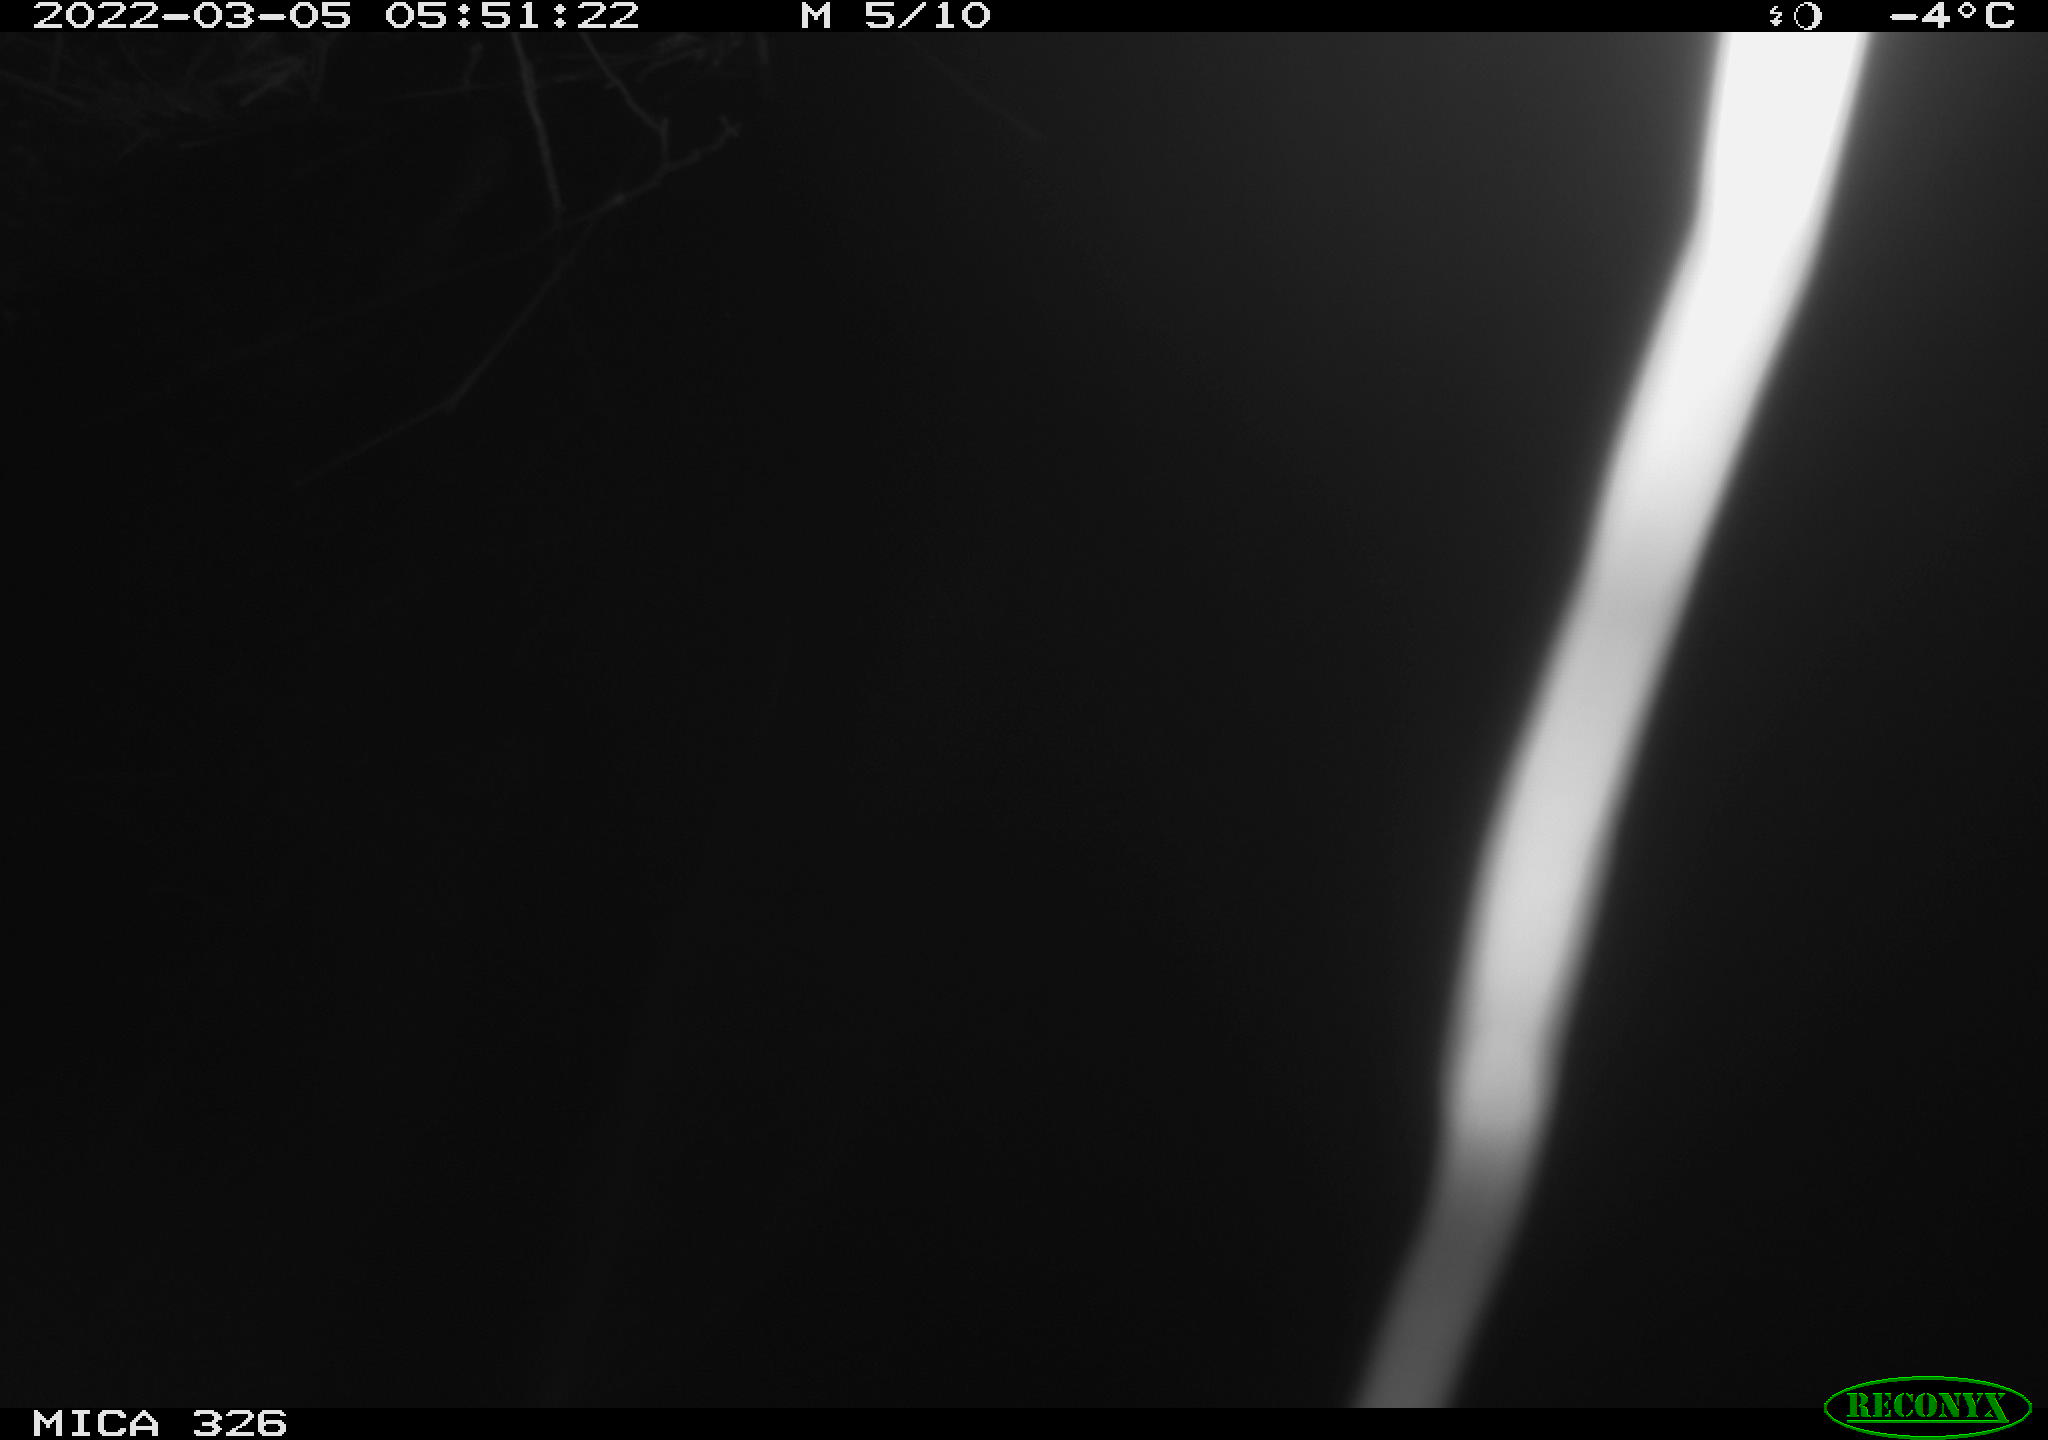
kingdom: Animalia
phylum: Chordata
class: Mammalia
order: Rodentia
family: Cricetidae
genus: Ondatra
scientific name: Ondatra zibethicus
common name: Muskrat
